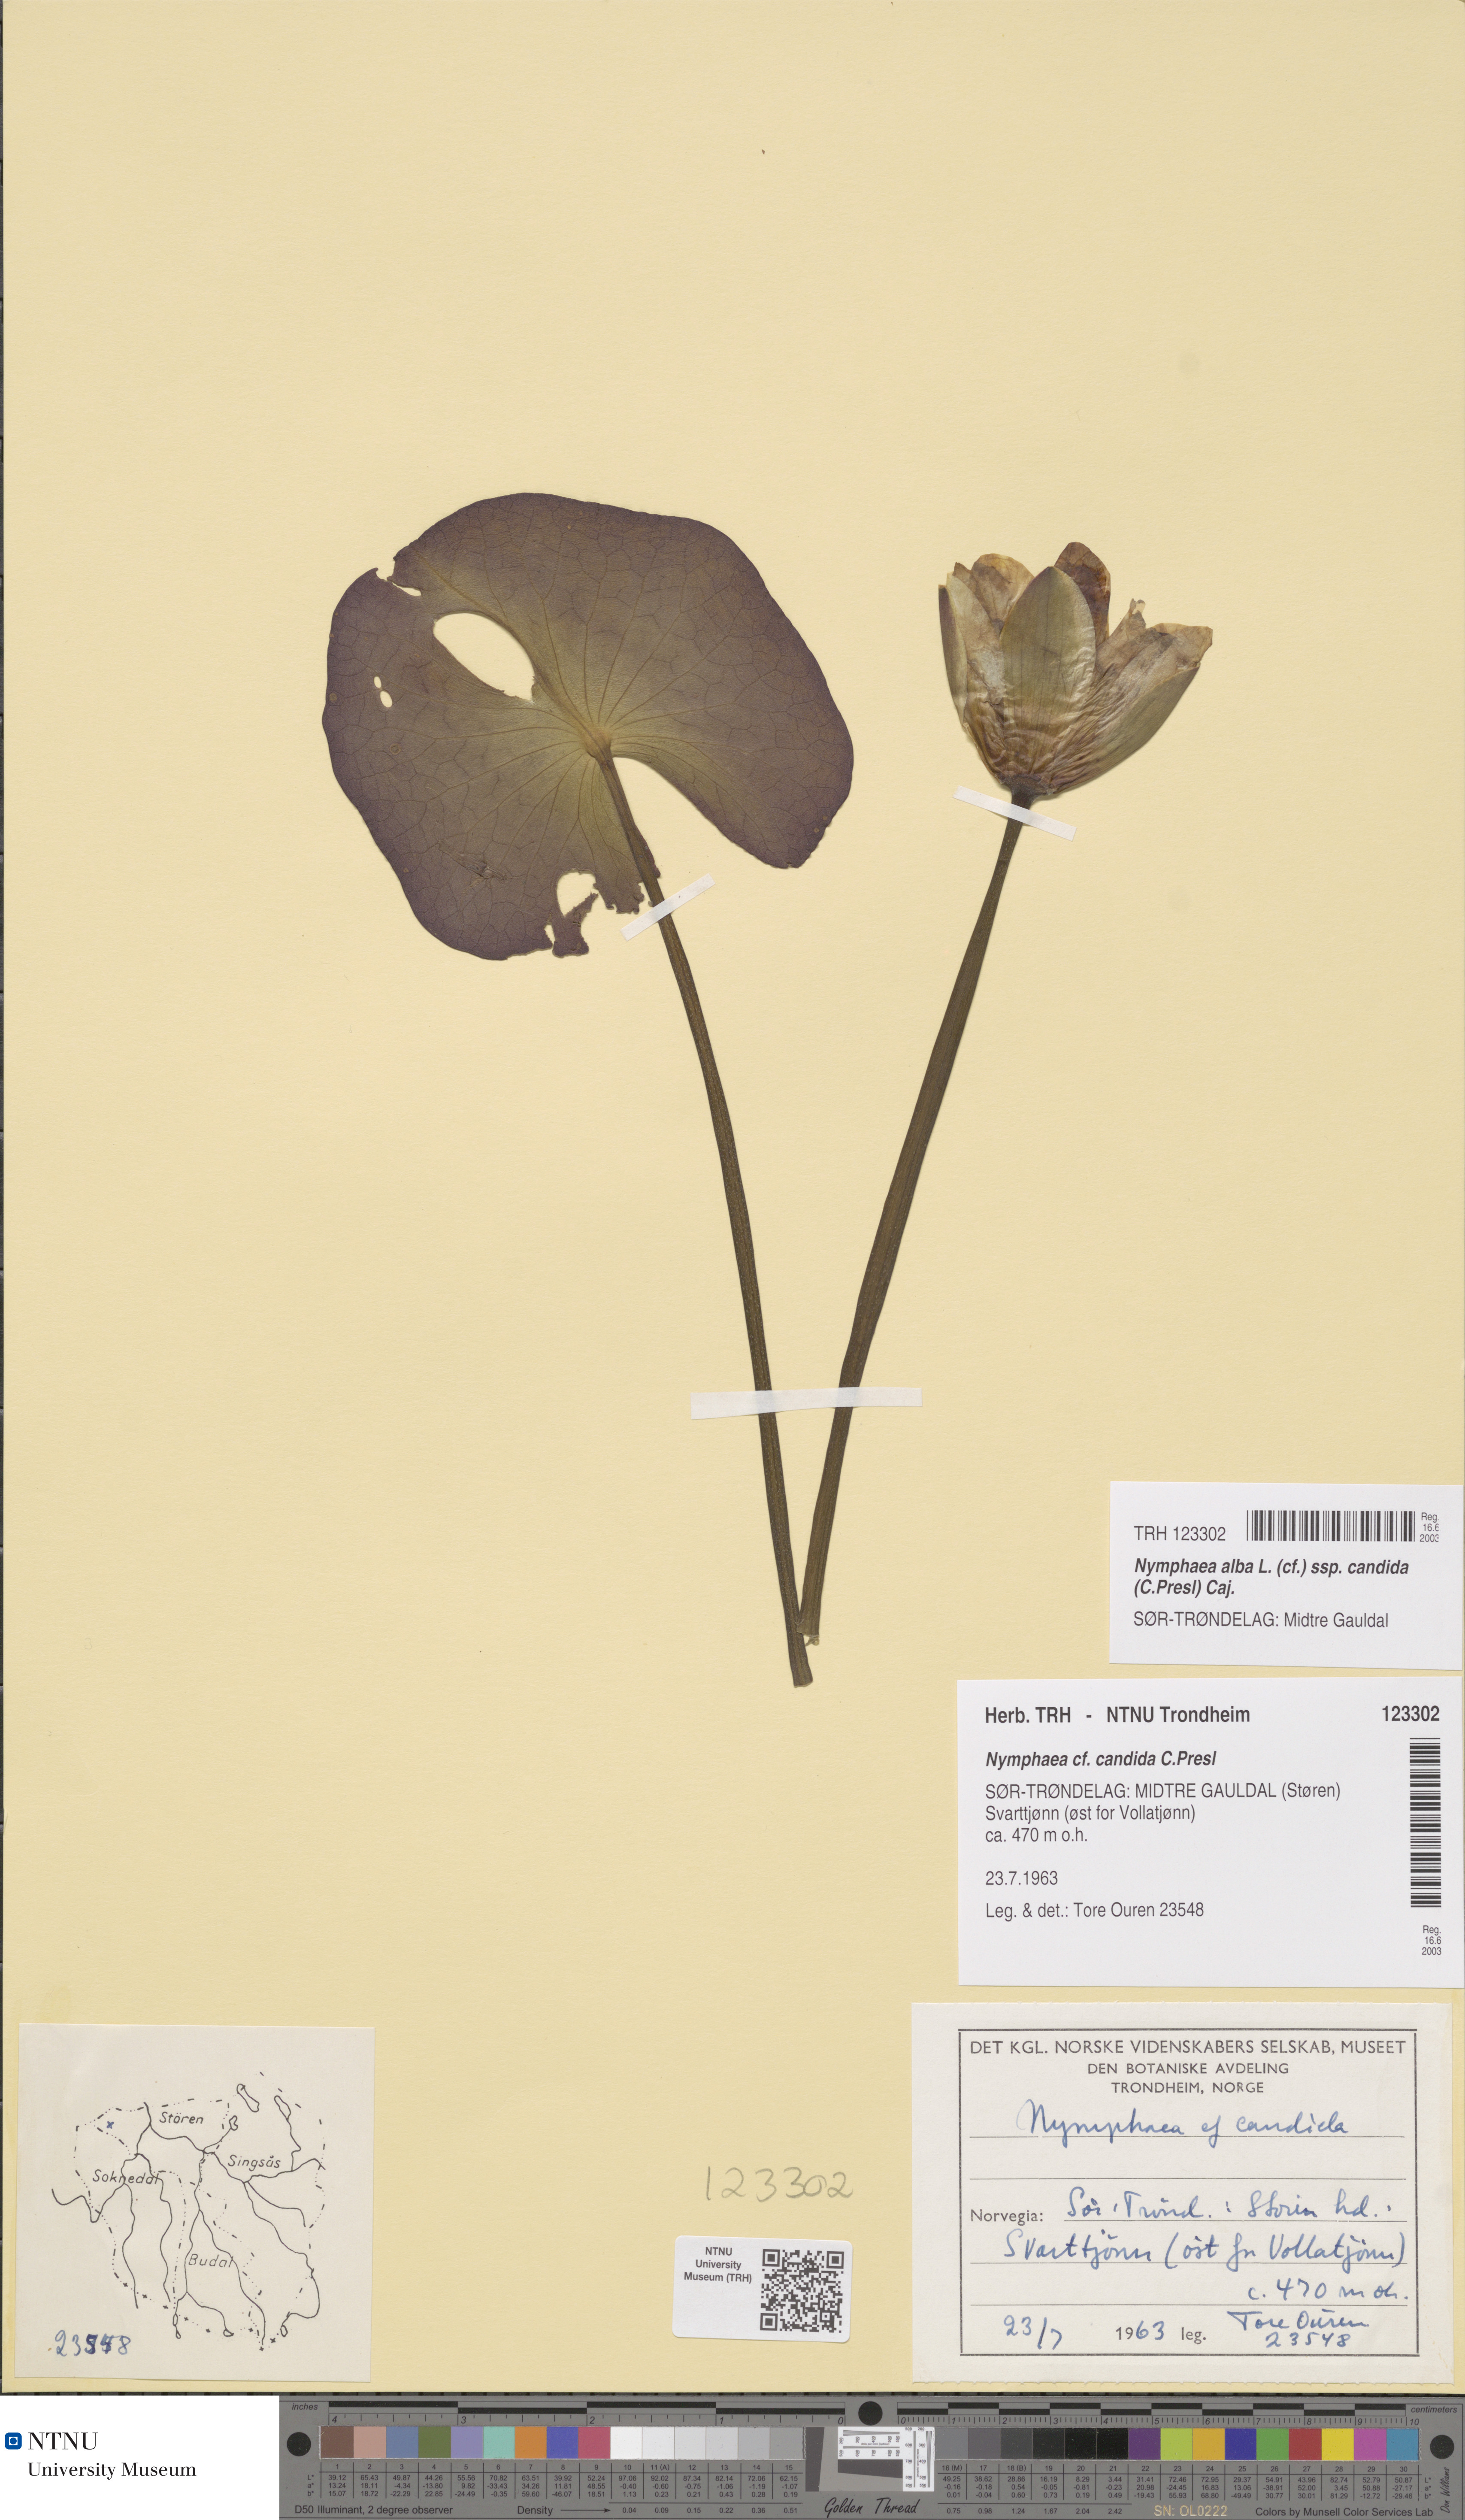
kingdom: Plantae
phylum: Tracheophyta
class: Magnoliopsida
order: Nymphaeales
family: Nymphaeaceae
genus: Nymphaea
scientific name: Nymphaea candida
